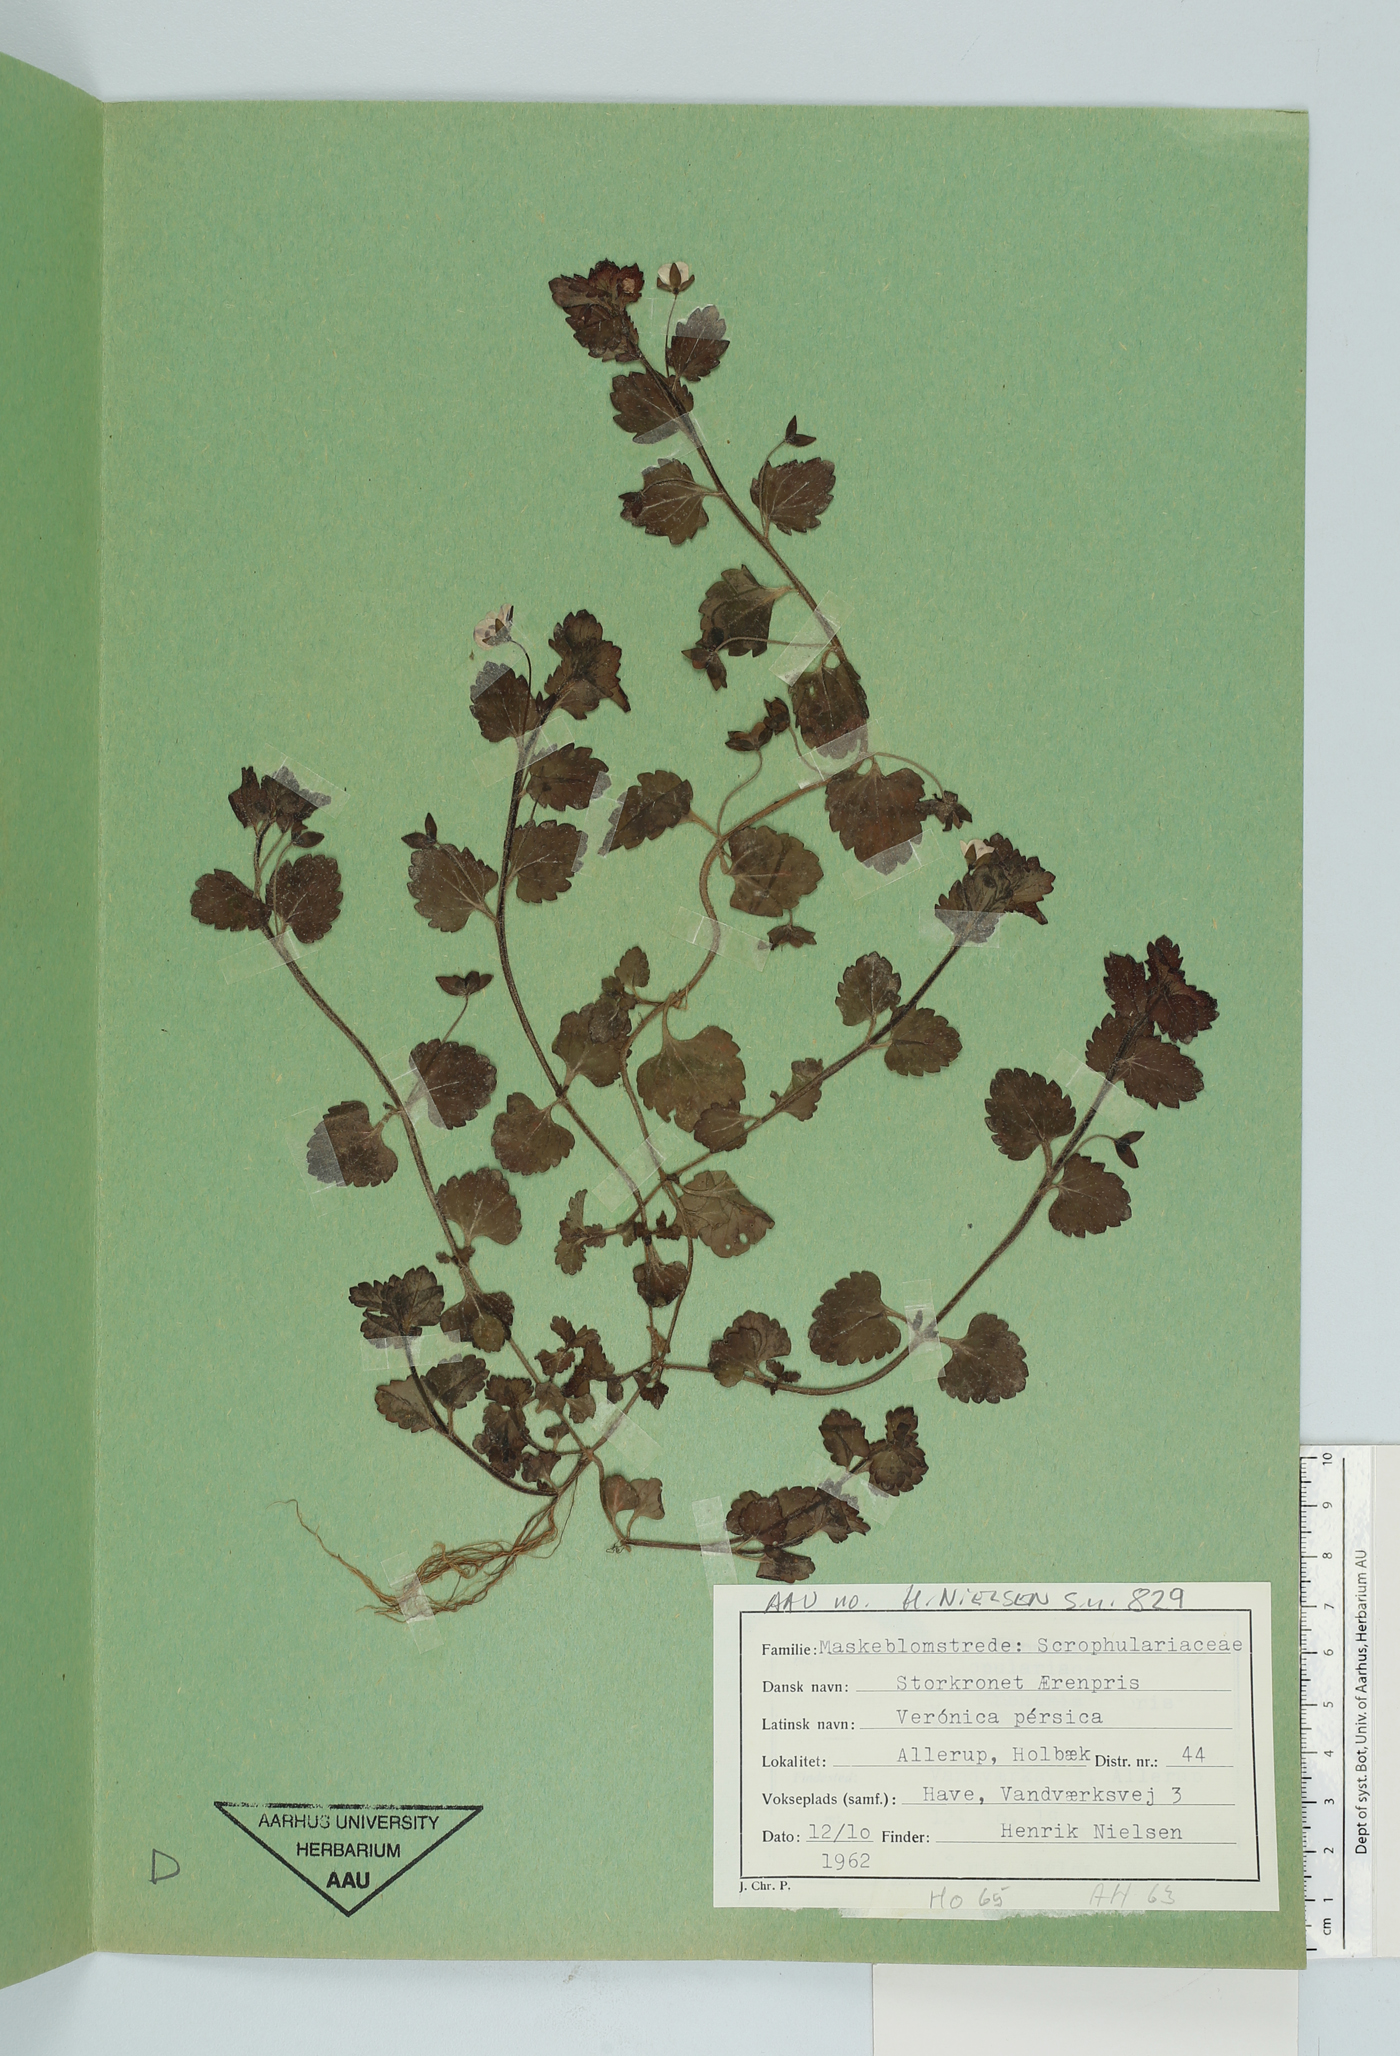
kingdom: Plantae
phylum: Tracheophyta
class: Magnoliopsida
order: Lamiales
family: Plantaginaceae
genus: Veronica
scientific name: Veronica persica
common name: Common field-speedwell
